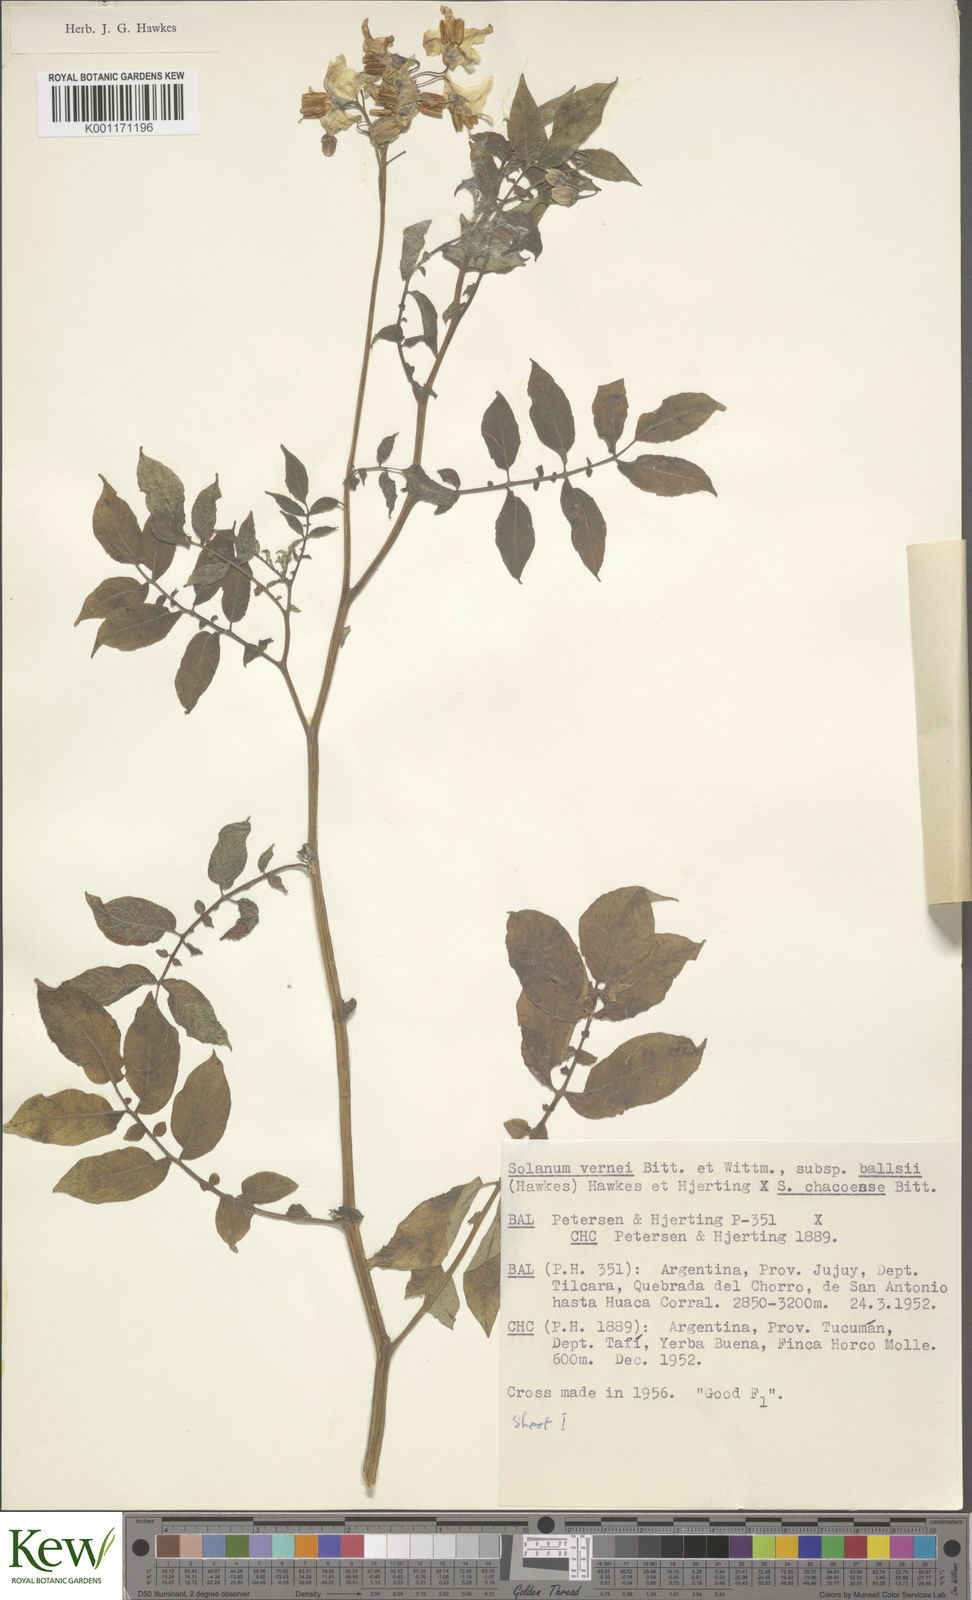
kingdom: Plantae
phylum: Tracheophyta
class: Magnoliopsida
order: Solanales
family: Solanaceae
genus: Solanum
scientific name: Solanum vernei
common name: Purple potato
